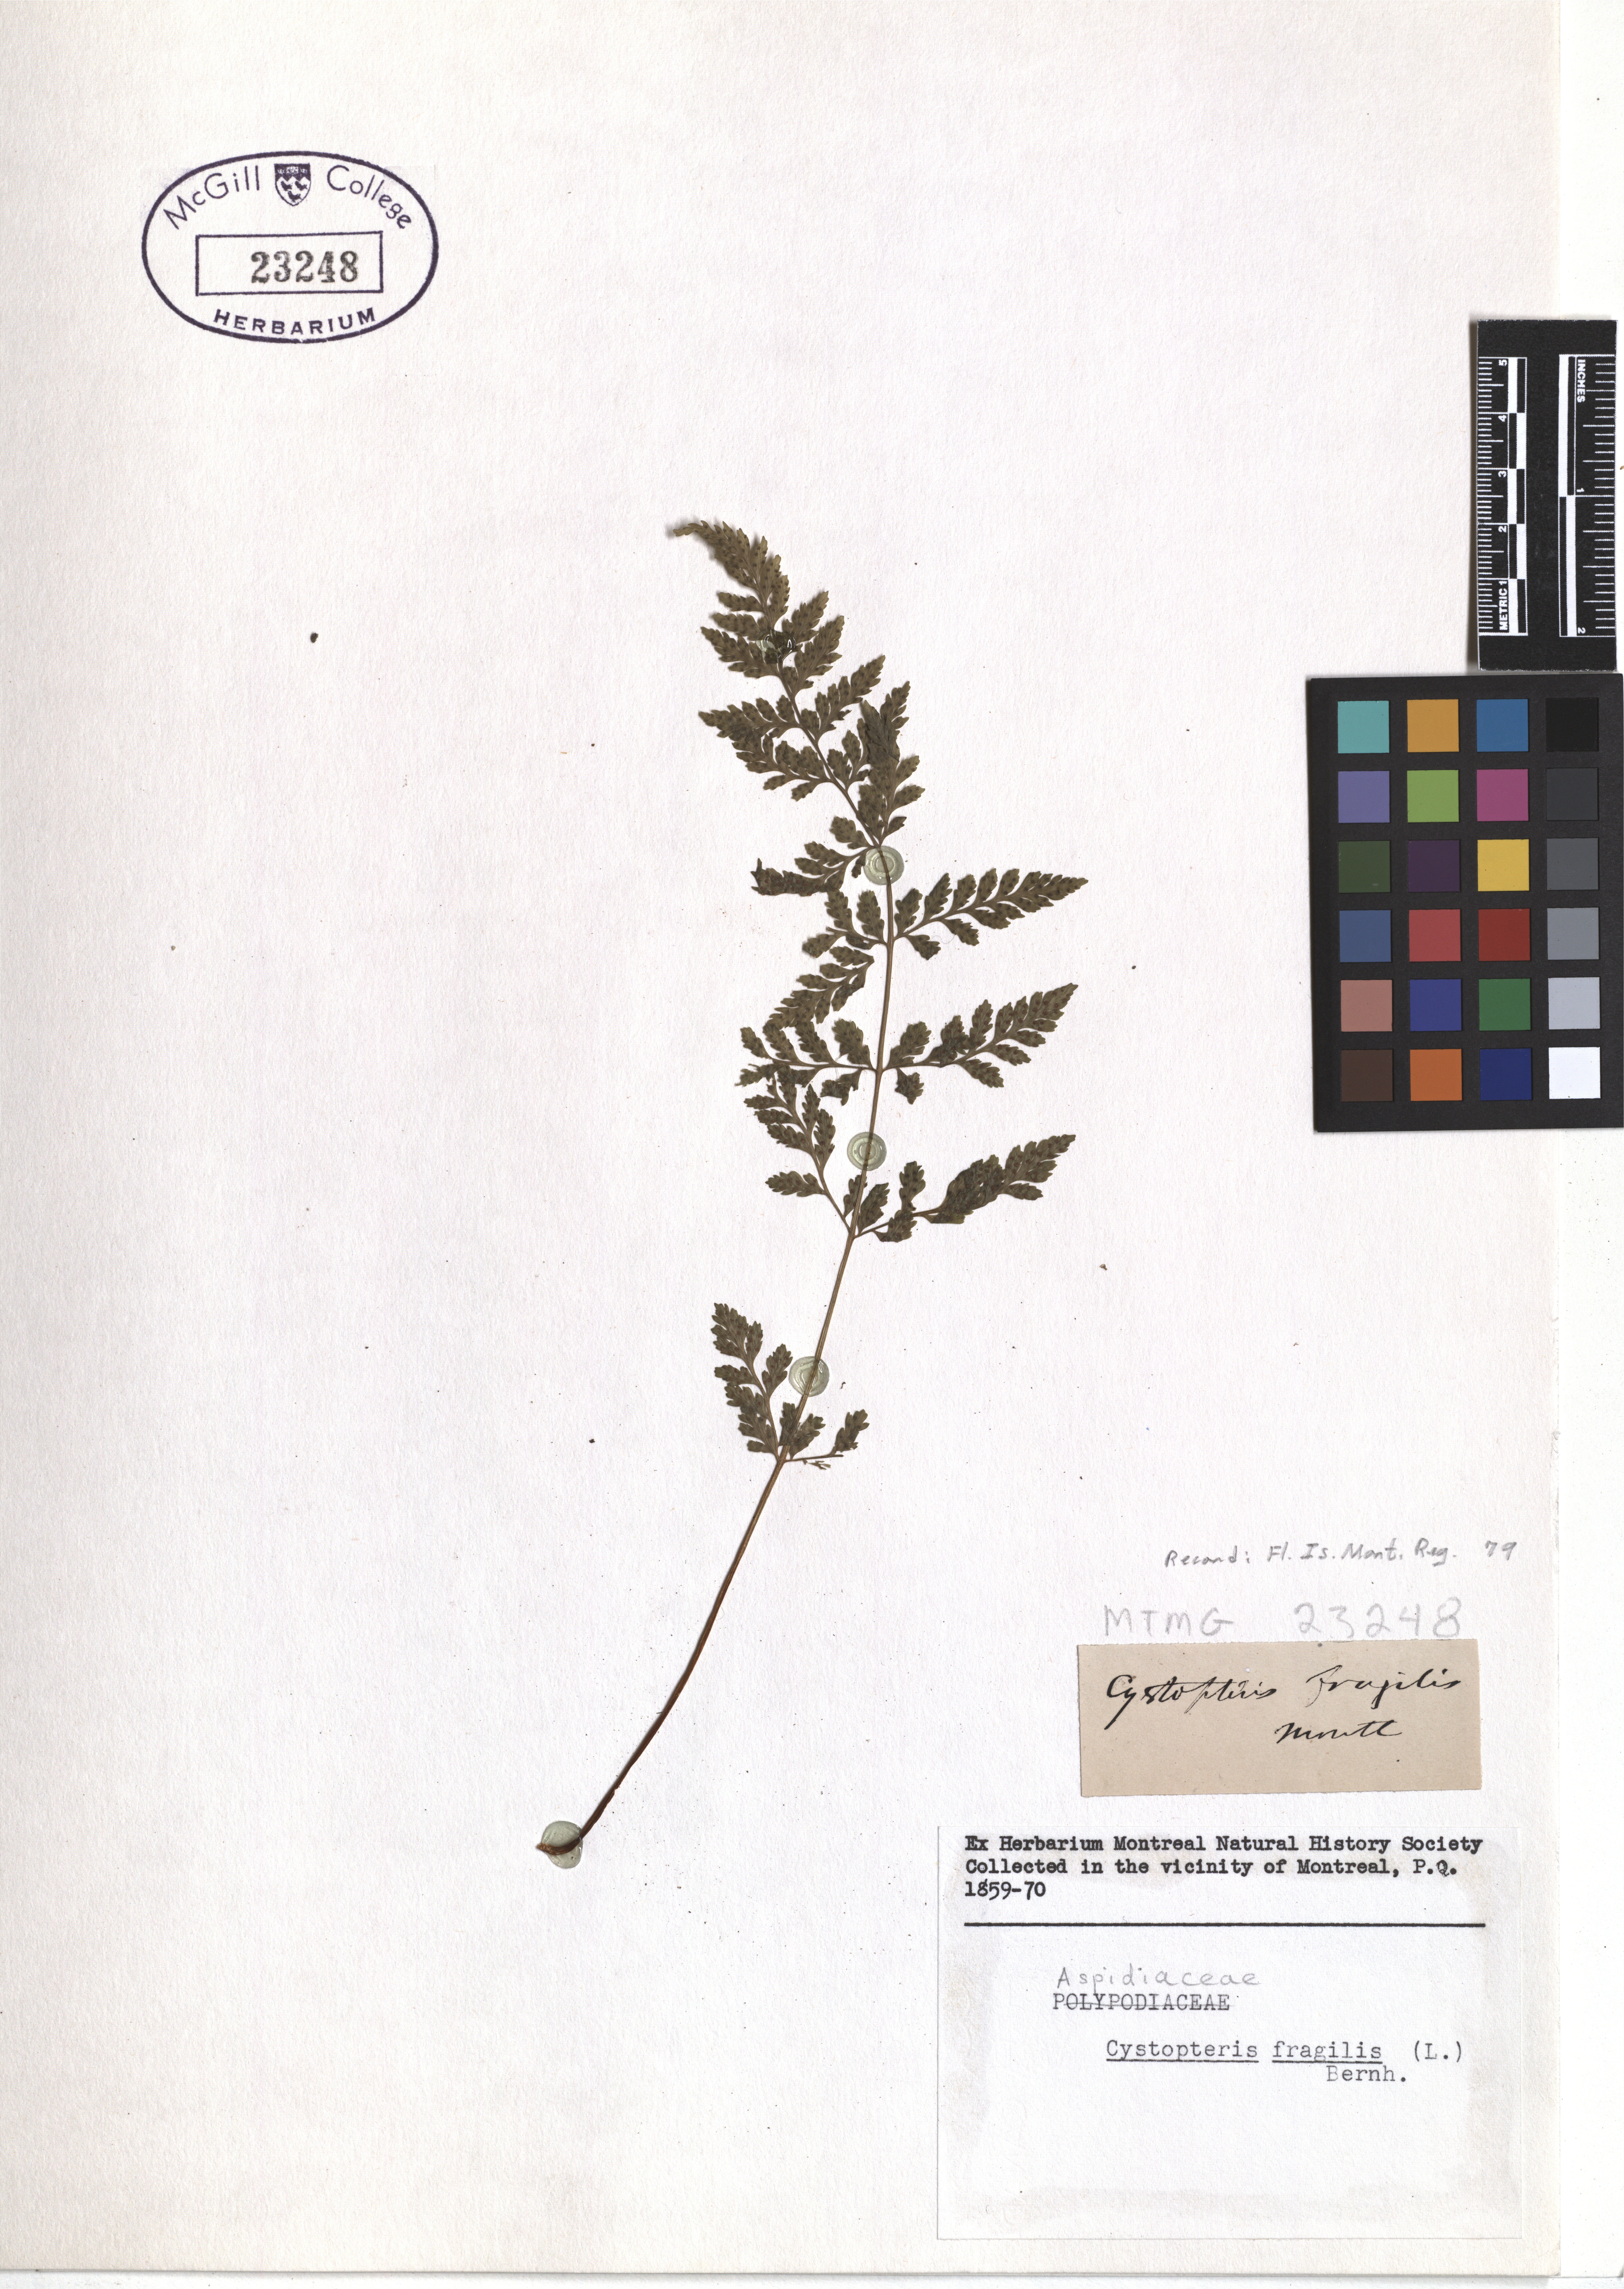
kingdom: Plantae
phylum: Tracheophyta
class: Polypodiopsida
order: Polypodiales
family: Cystopteridaceae
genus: Cystopteris
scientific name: Cystopteris fragilis
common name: Brittle bladder fern
